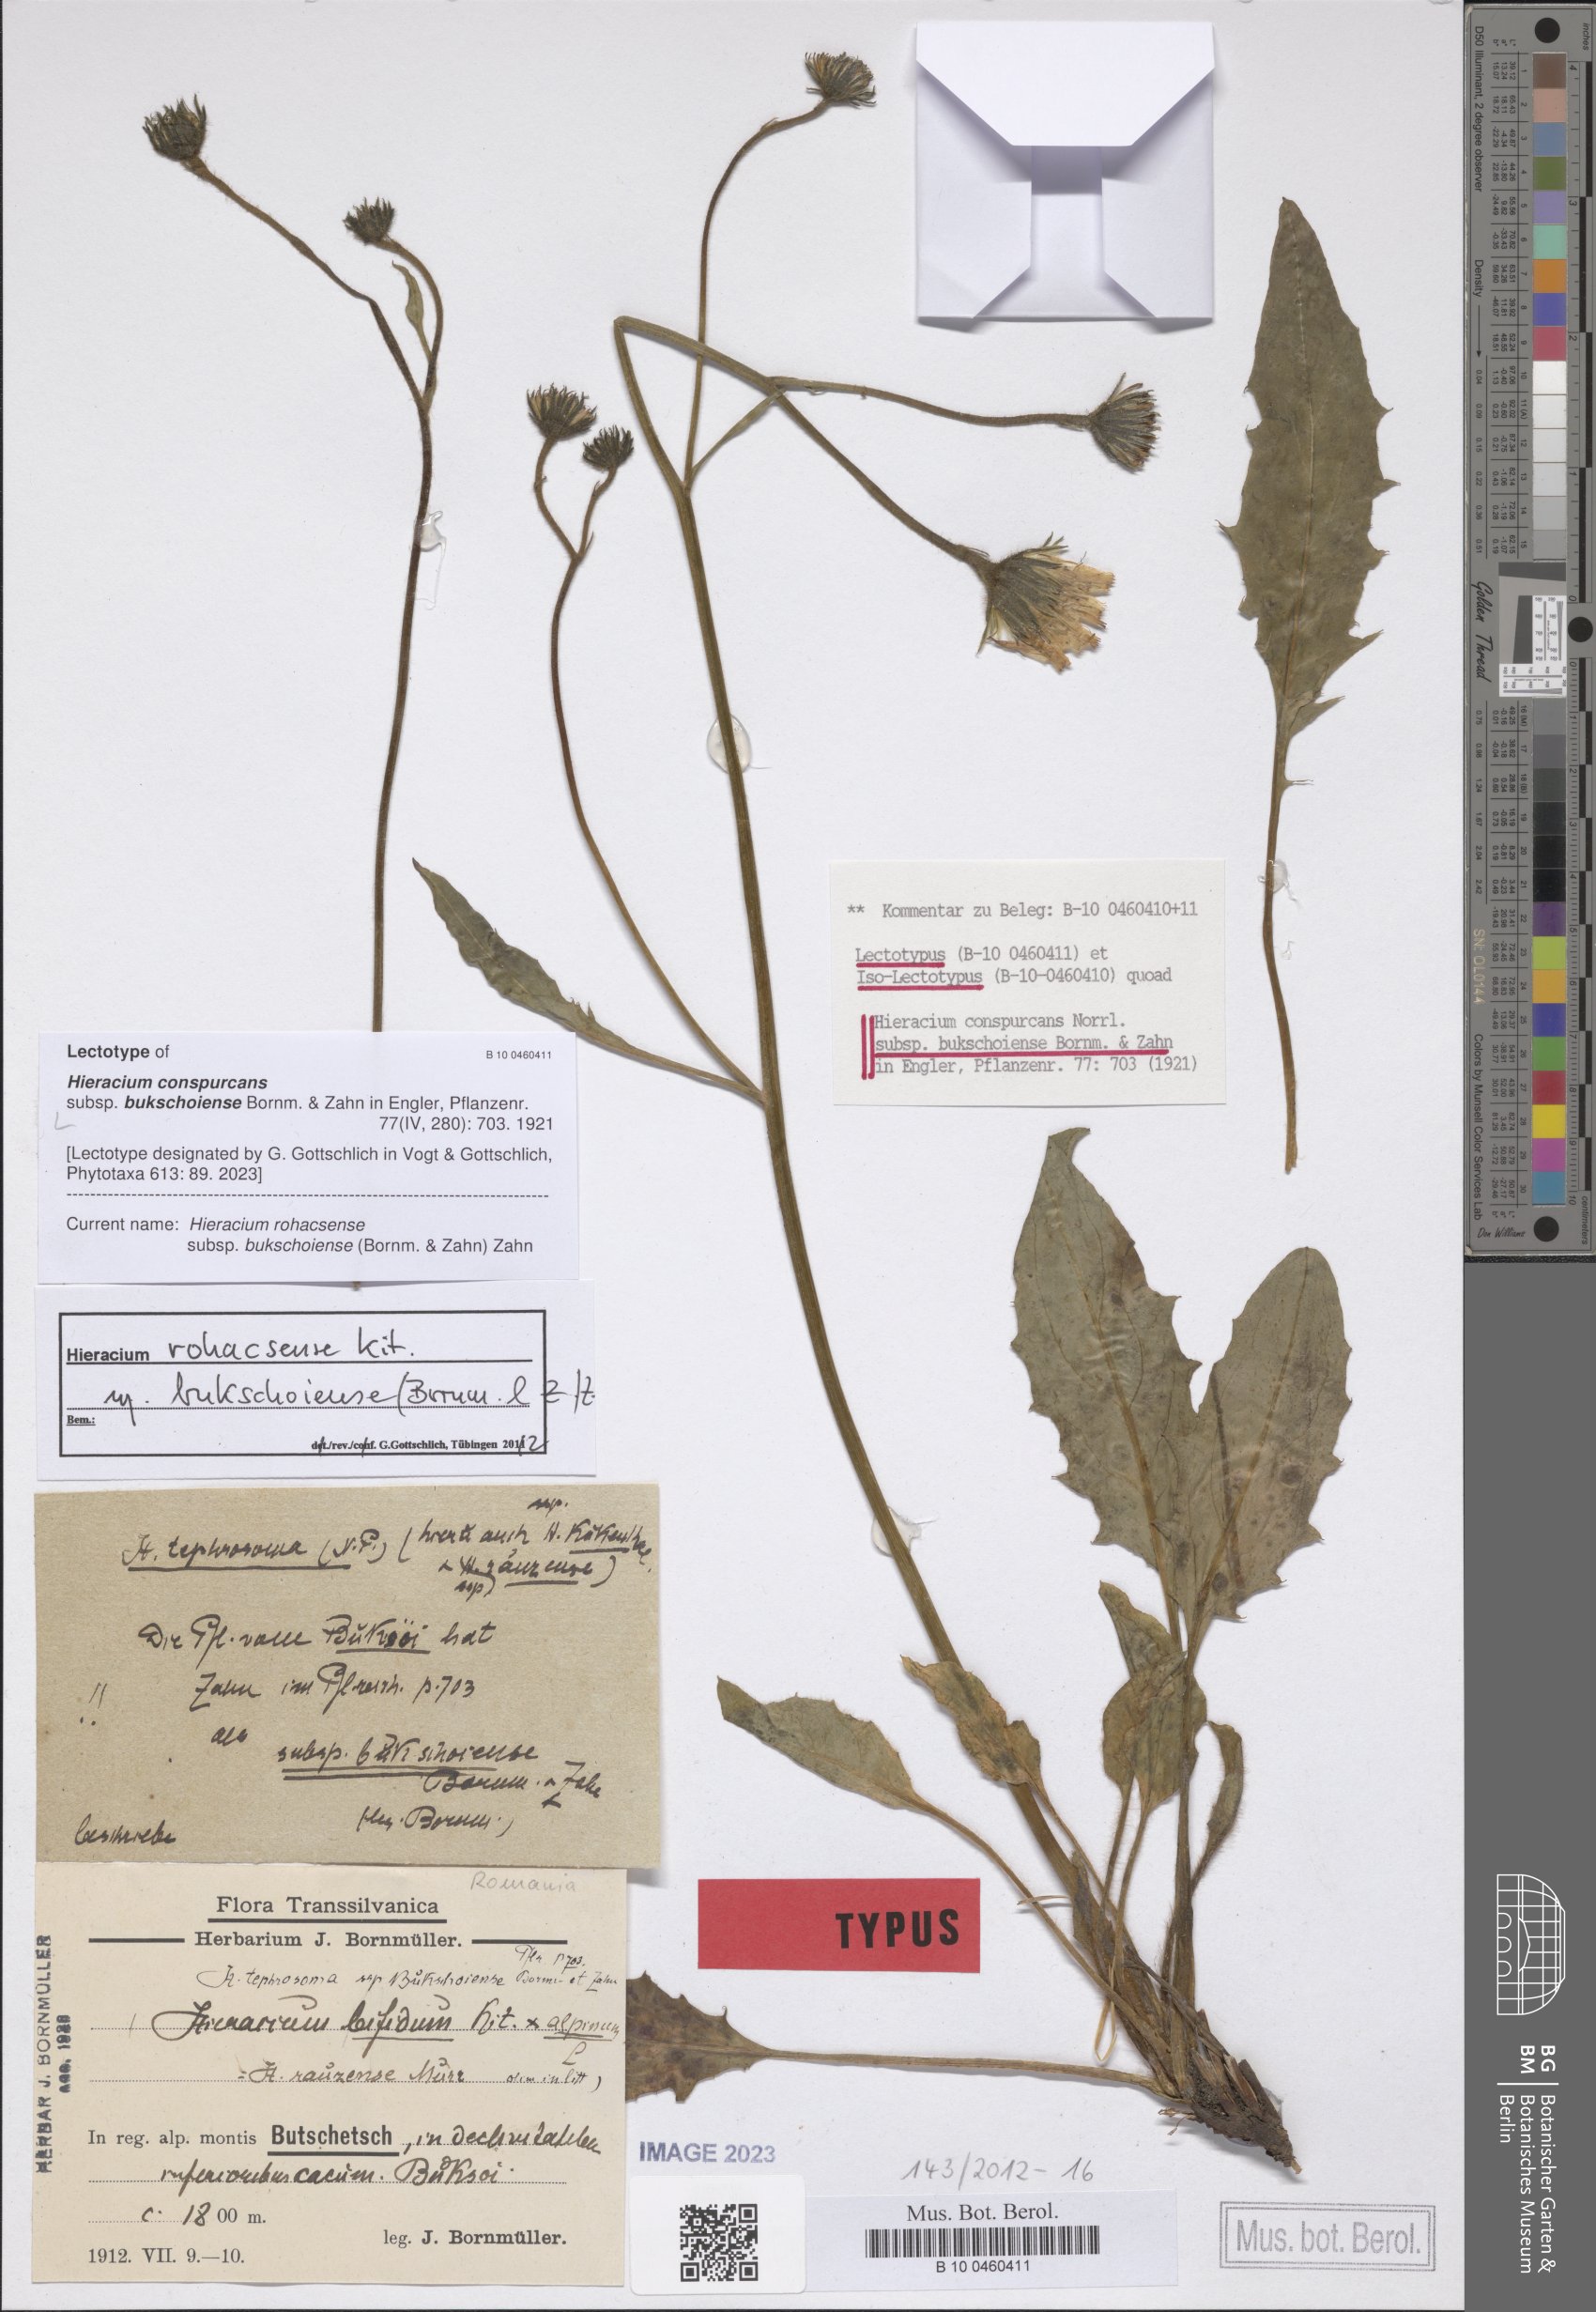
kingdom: Plantae
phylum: Tracheophyta
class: Magnoliopsida
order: Asterales
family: Asteraceae
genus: Hieracium
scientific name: Hieracium conspurcans
